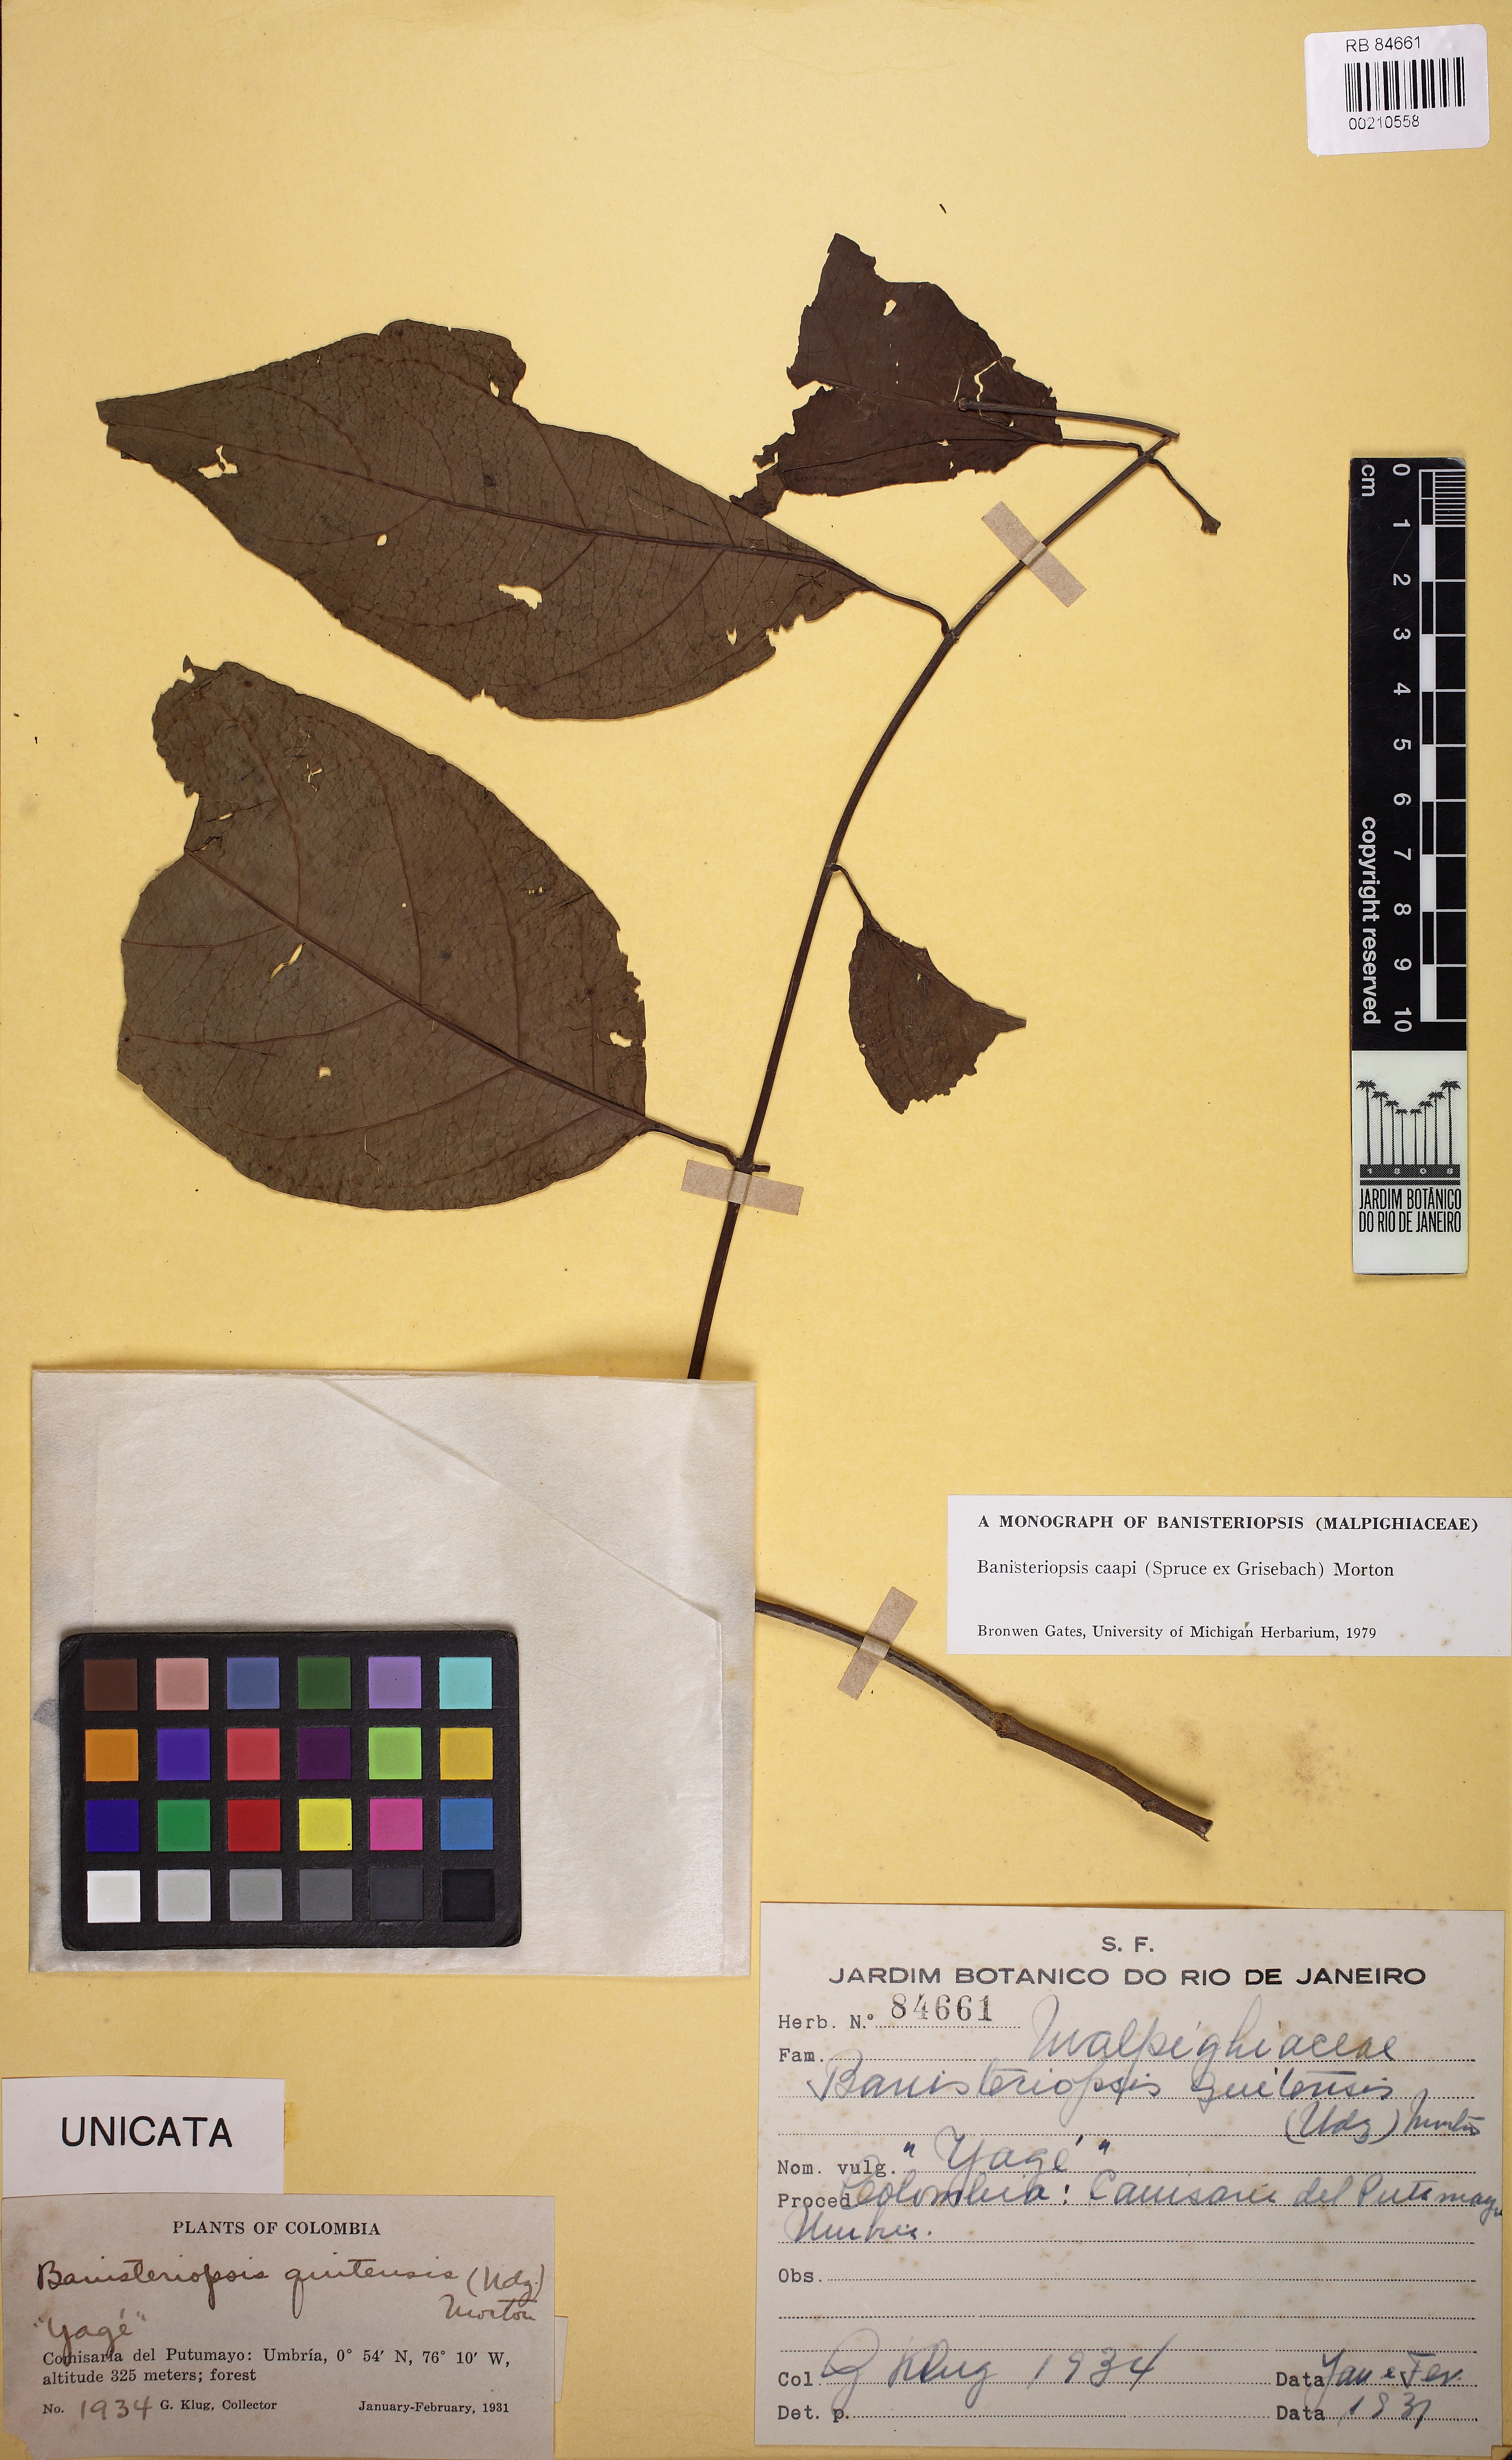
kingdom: Plantae
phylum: Tracheophyta
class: Magnoliopsida
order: Malpighiales
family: Malpighiaceae
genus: Banisteriopsis
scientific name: Banisteriopsis caapi
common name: Soulvine
